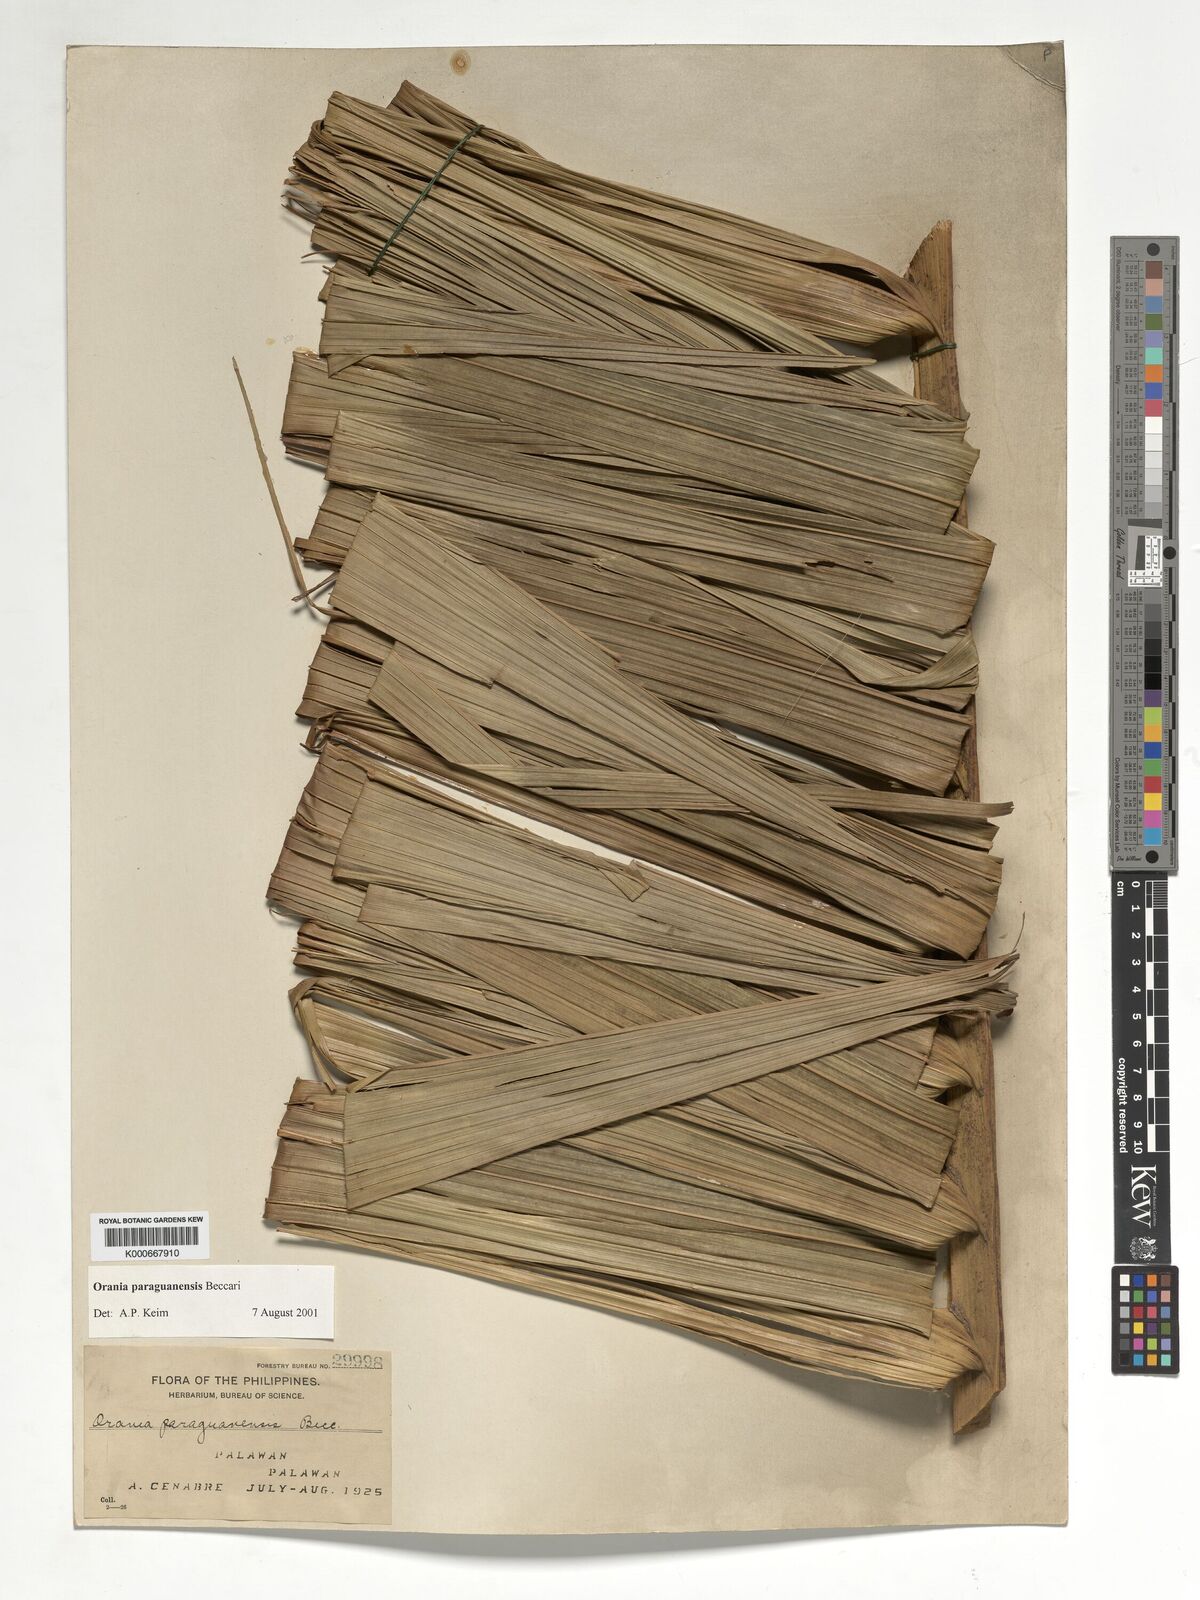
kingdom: Plantae
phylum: Tracheophyta
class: Liliopsida
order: Arecales
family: Arecaceae
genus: Orania
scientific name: Orania paraguanensis
